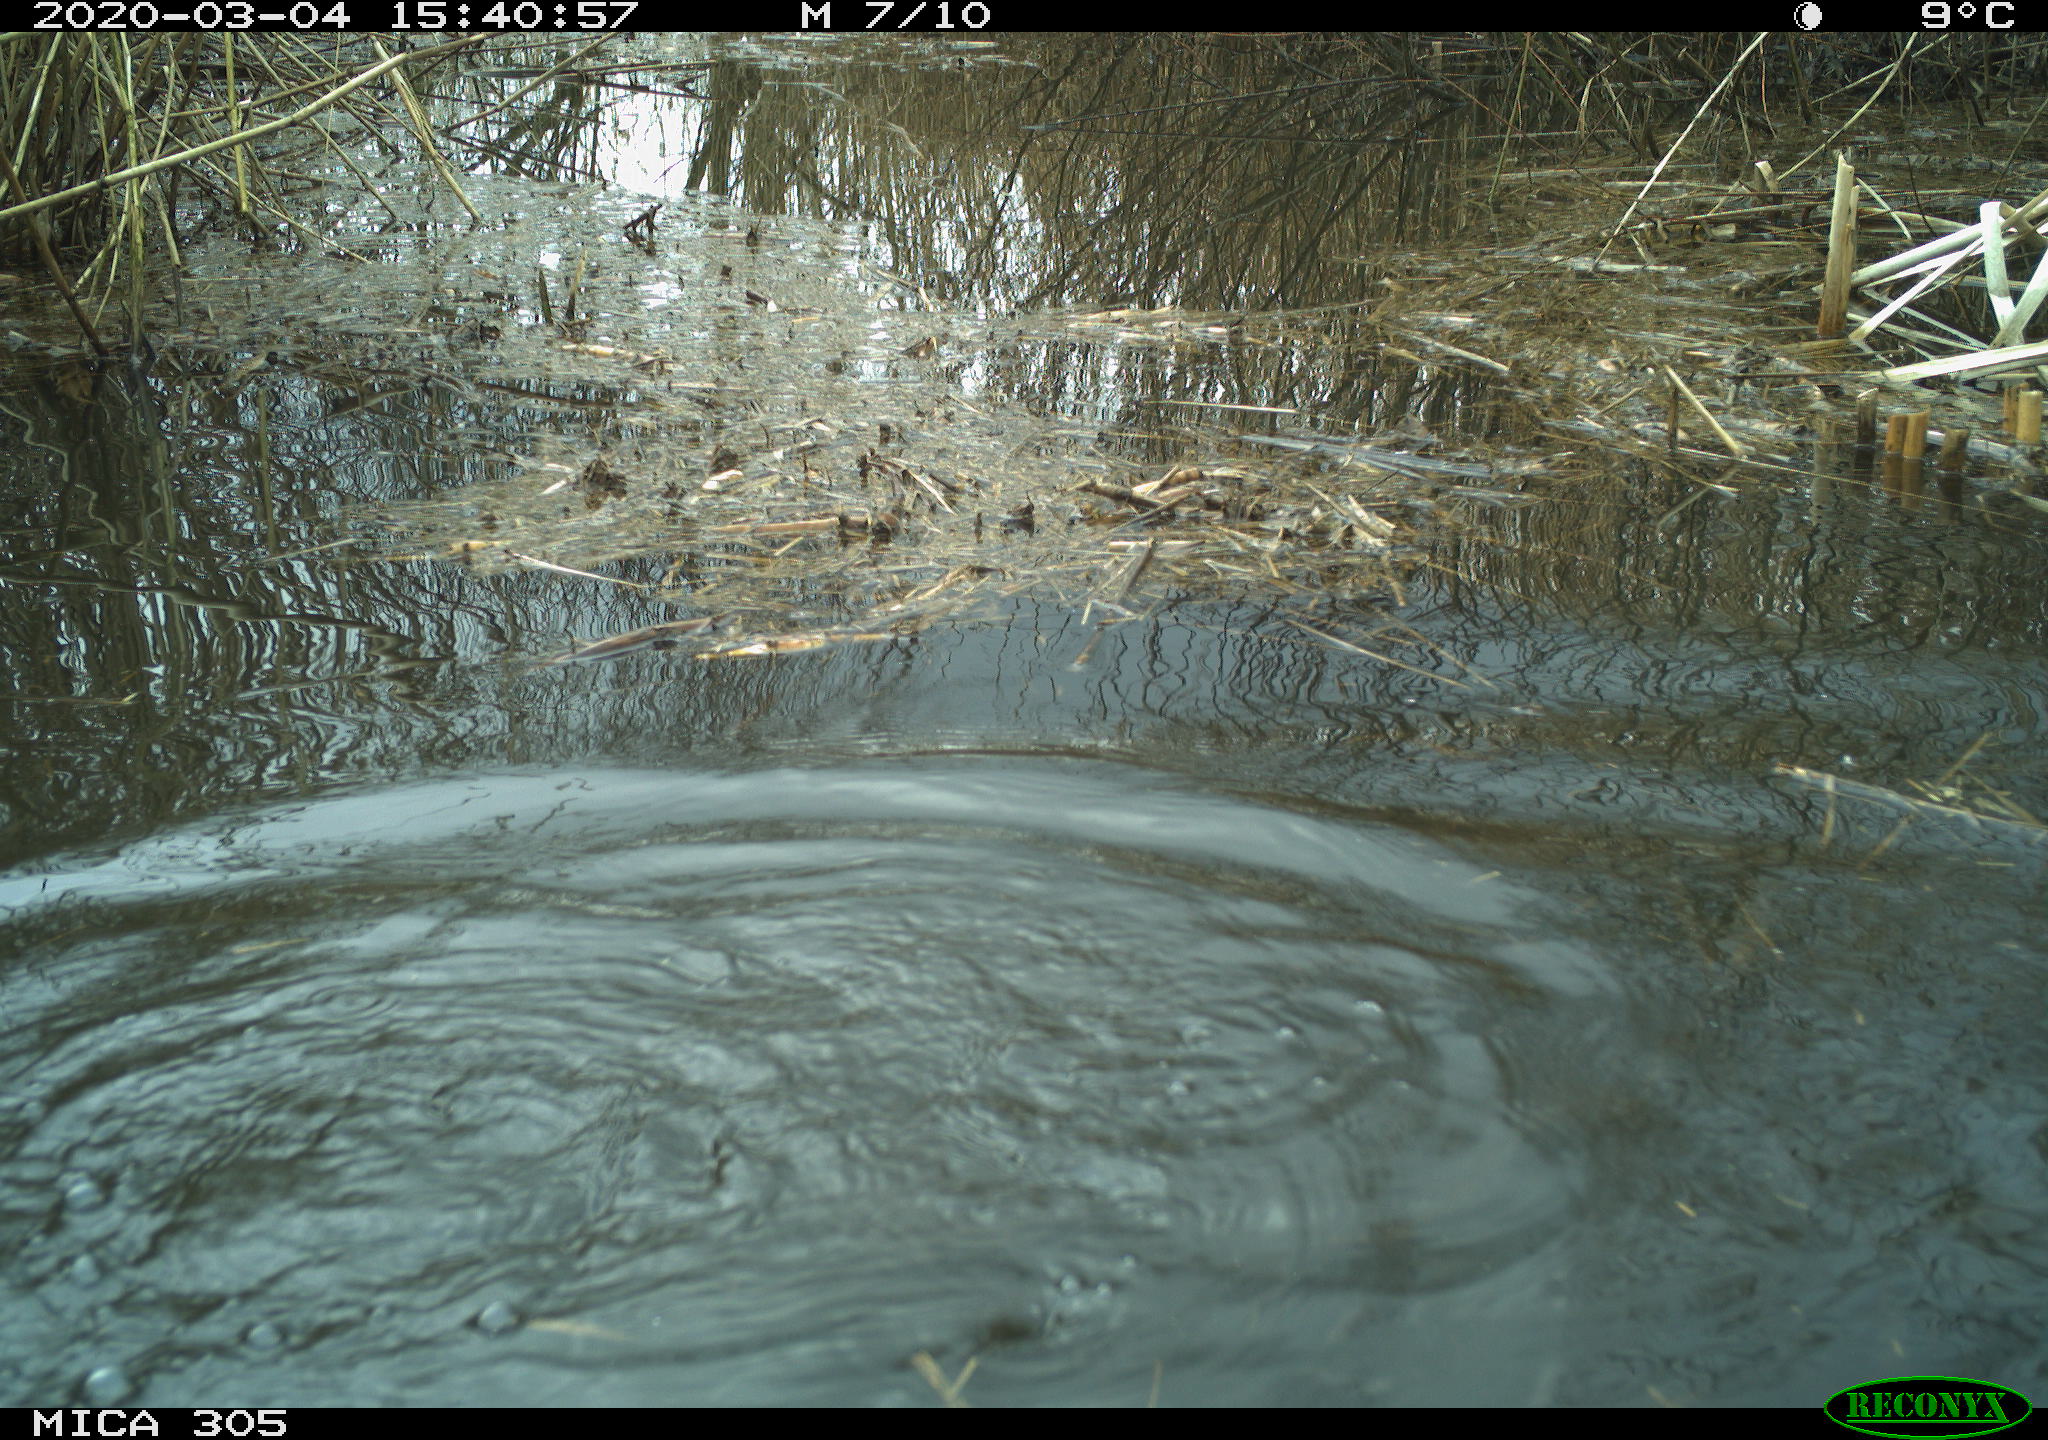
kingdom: Animalia
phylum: Chordata
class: Aves
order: Suliformes
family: Phalacrocoracidae
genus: Phalacrocorax
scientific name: Phalacrocorax carbo
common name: Great cormorant
